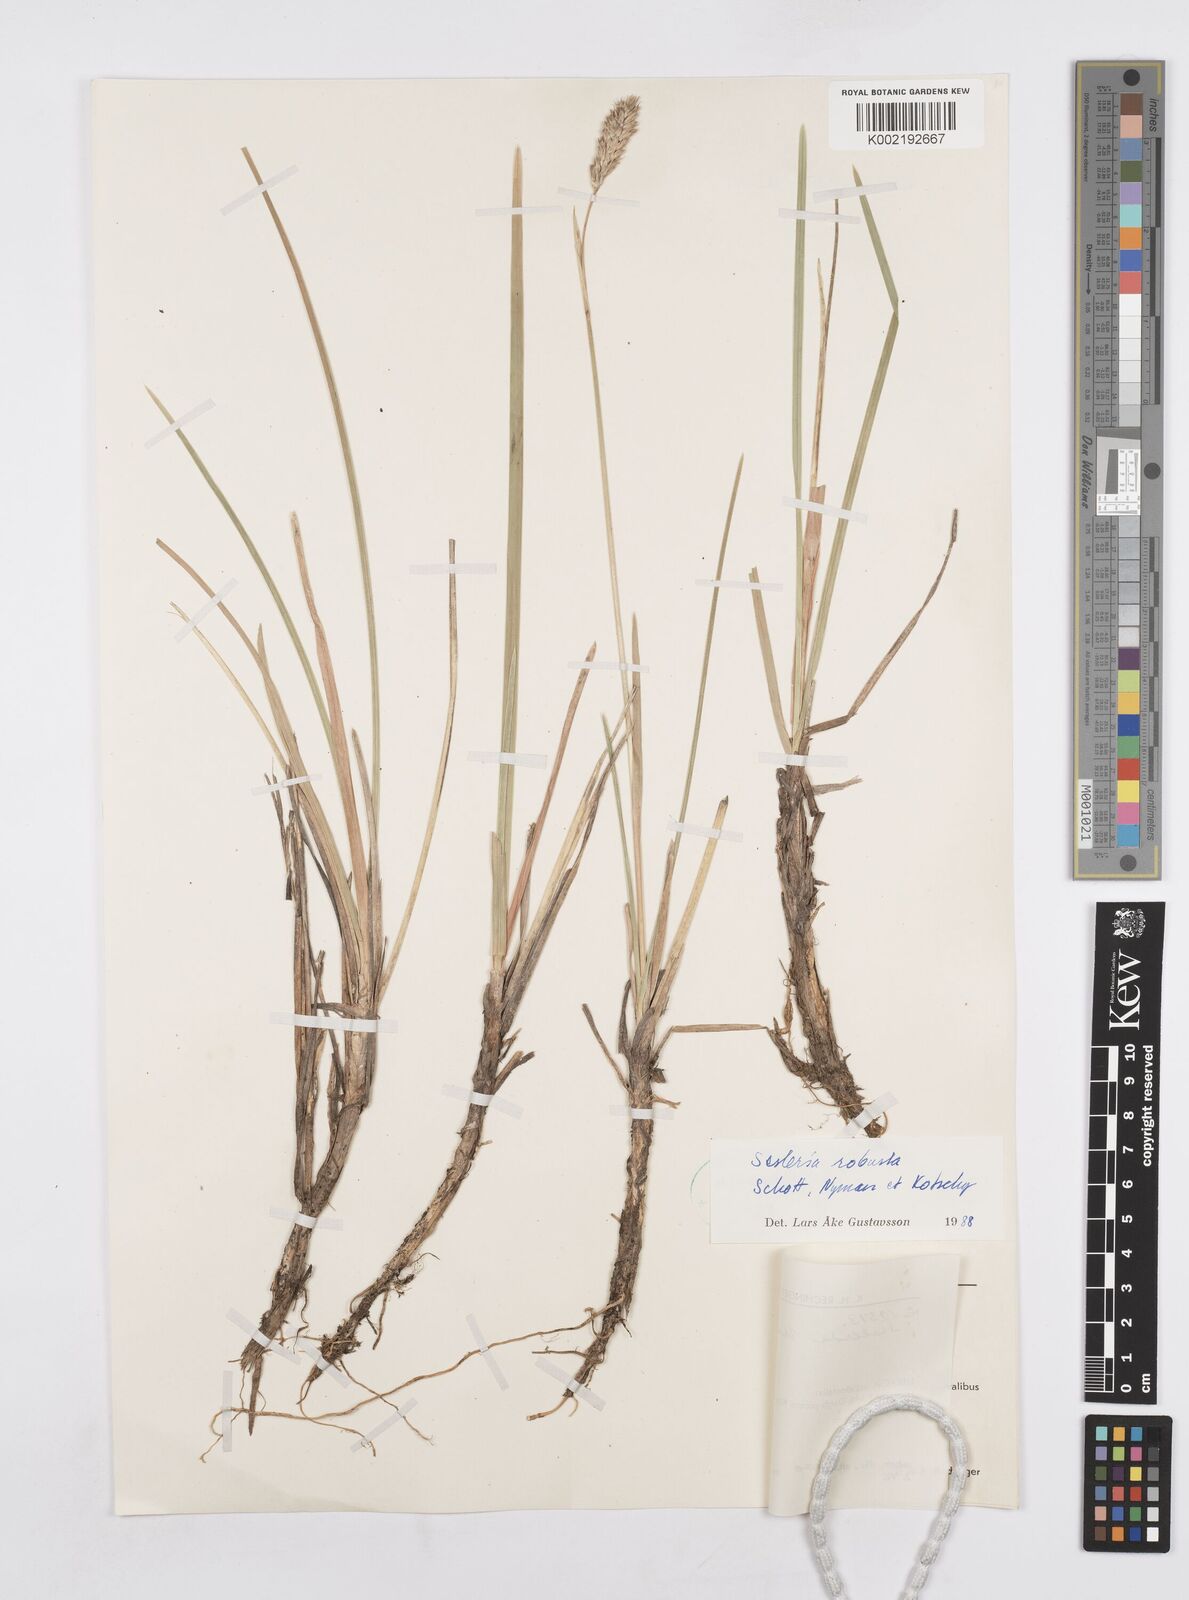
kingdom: Plantae
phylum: Tracheophyta
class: Liliopsida
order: Poales
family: Poaceae
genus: Sesleria
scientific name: Sesleria robusta
